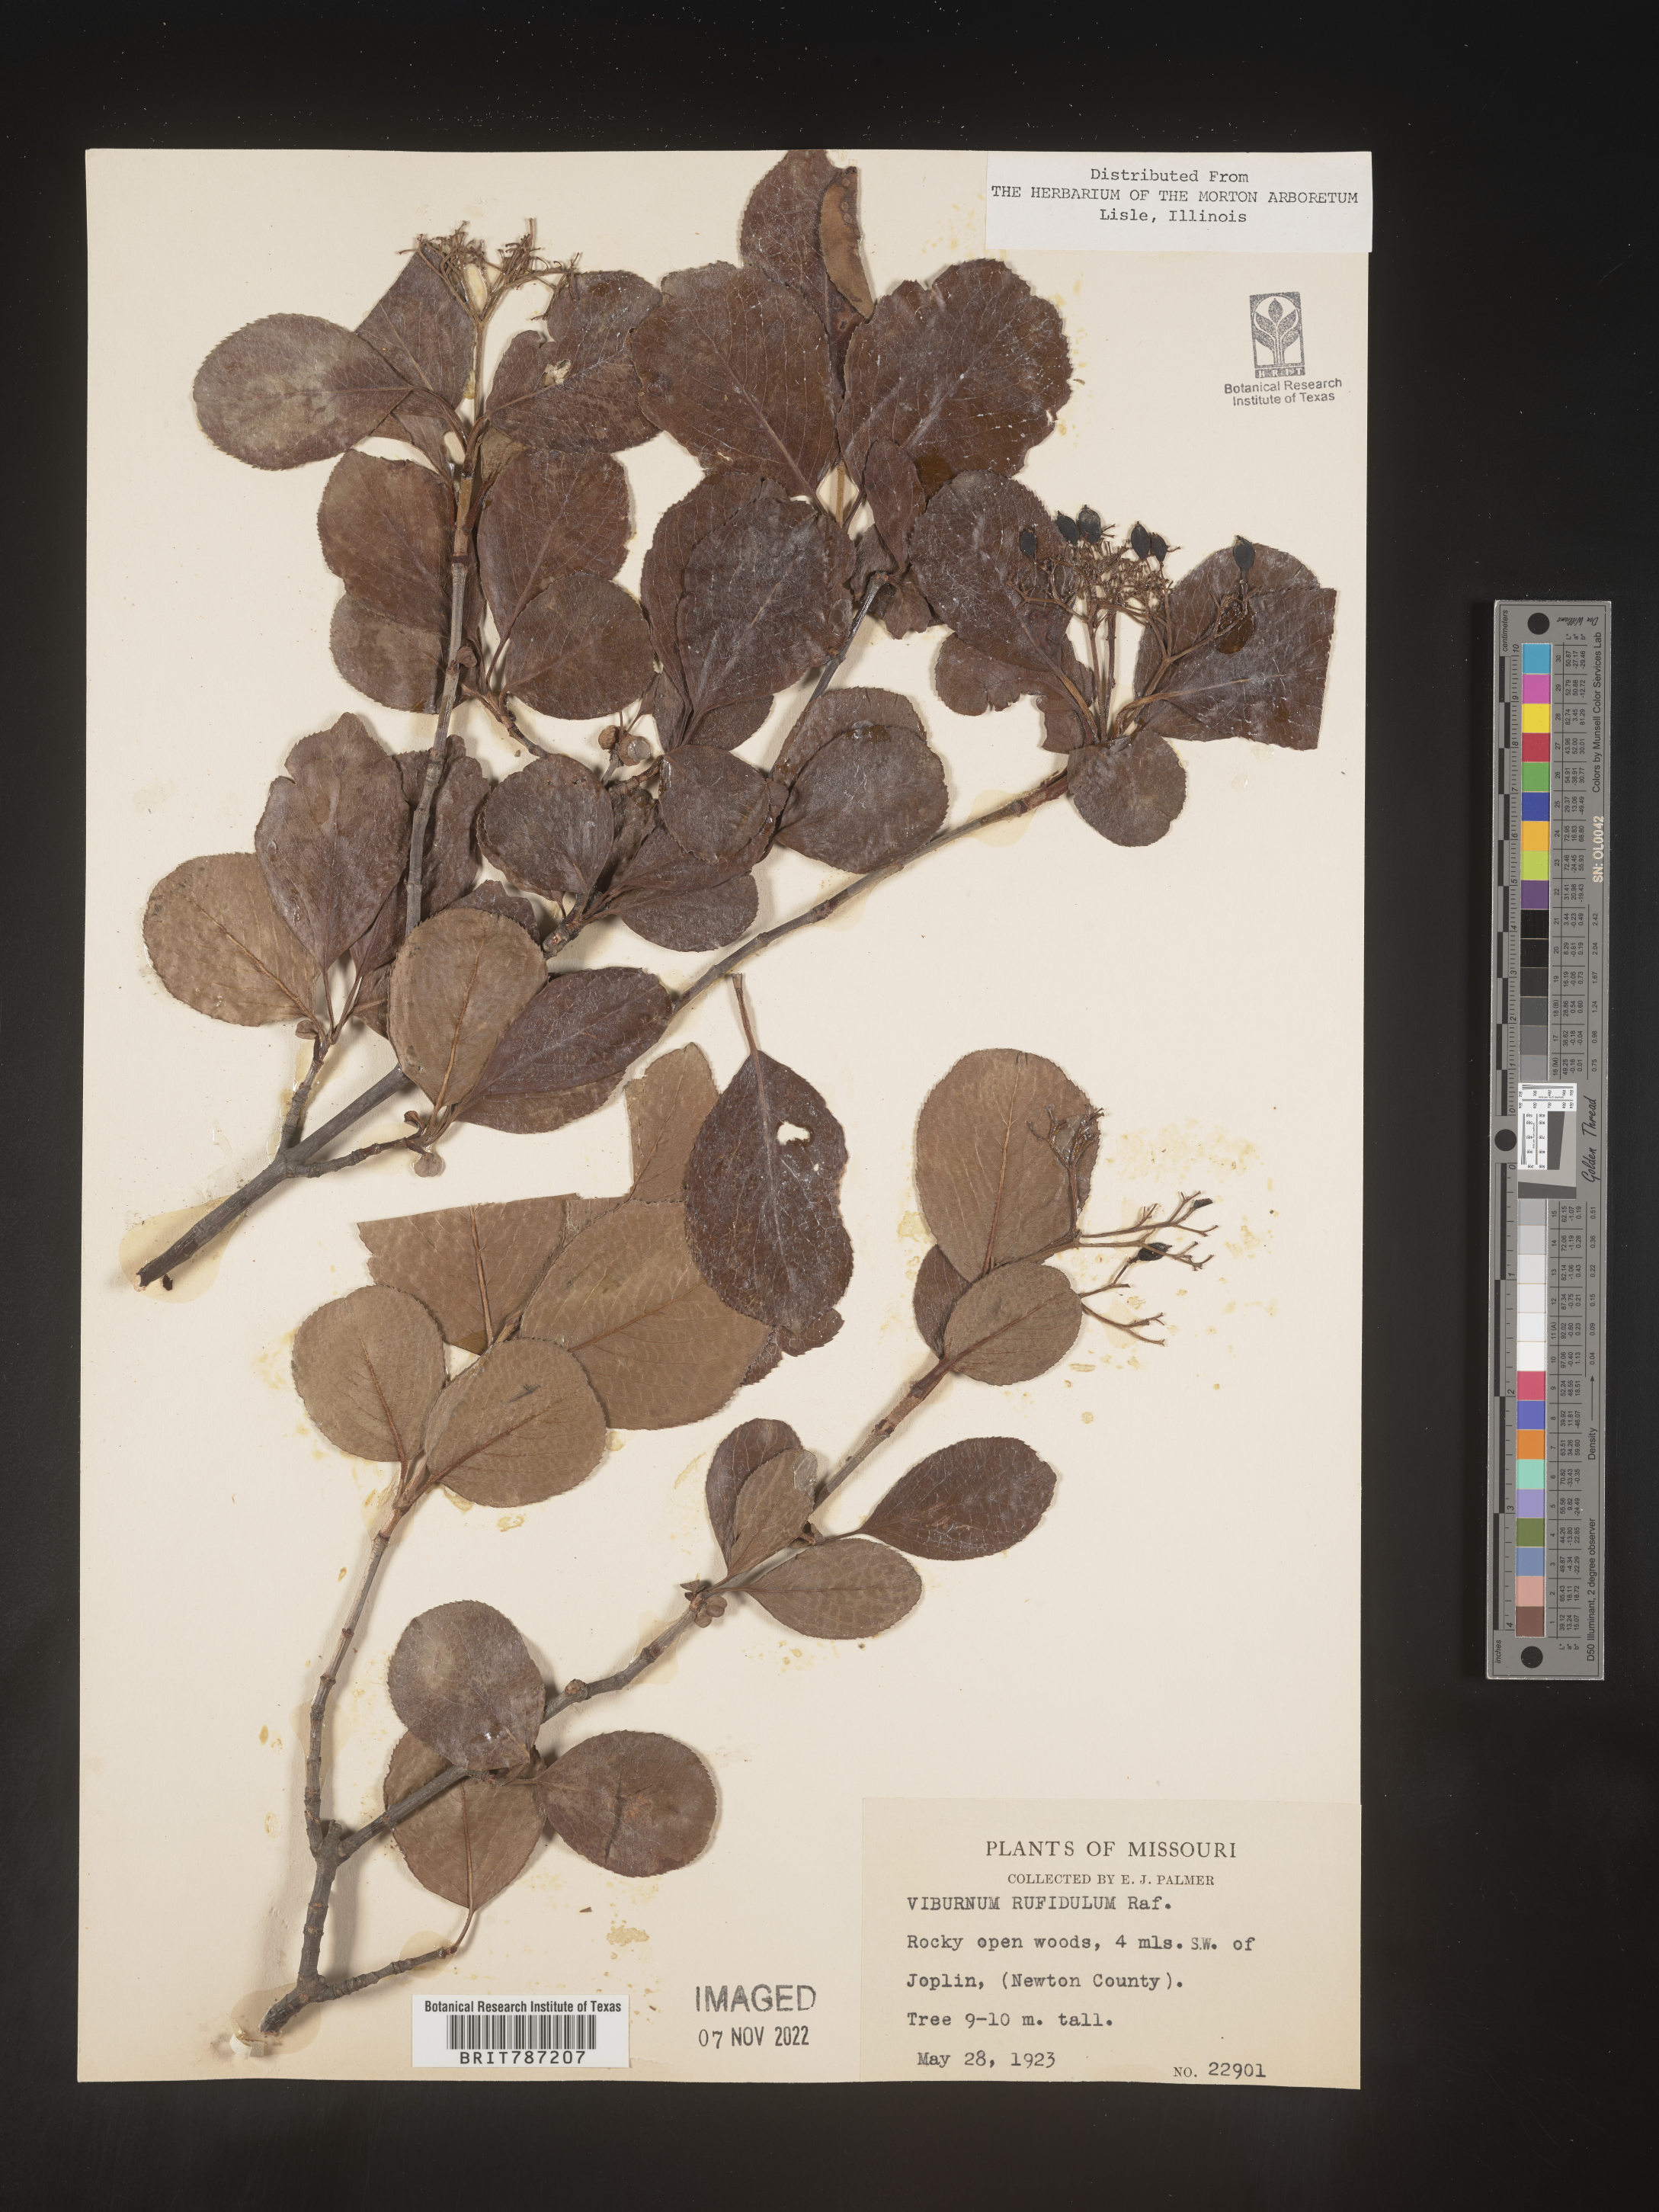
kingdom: Plantae
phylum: Tracheophyta
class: Magnoliopsida
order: Dipsacales
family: Viburnaceae
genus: Viburnum
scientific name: Viburnum rufidulum
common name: Blue haw
